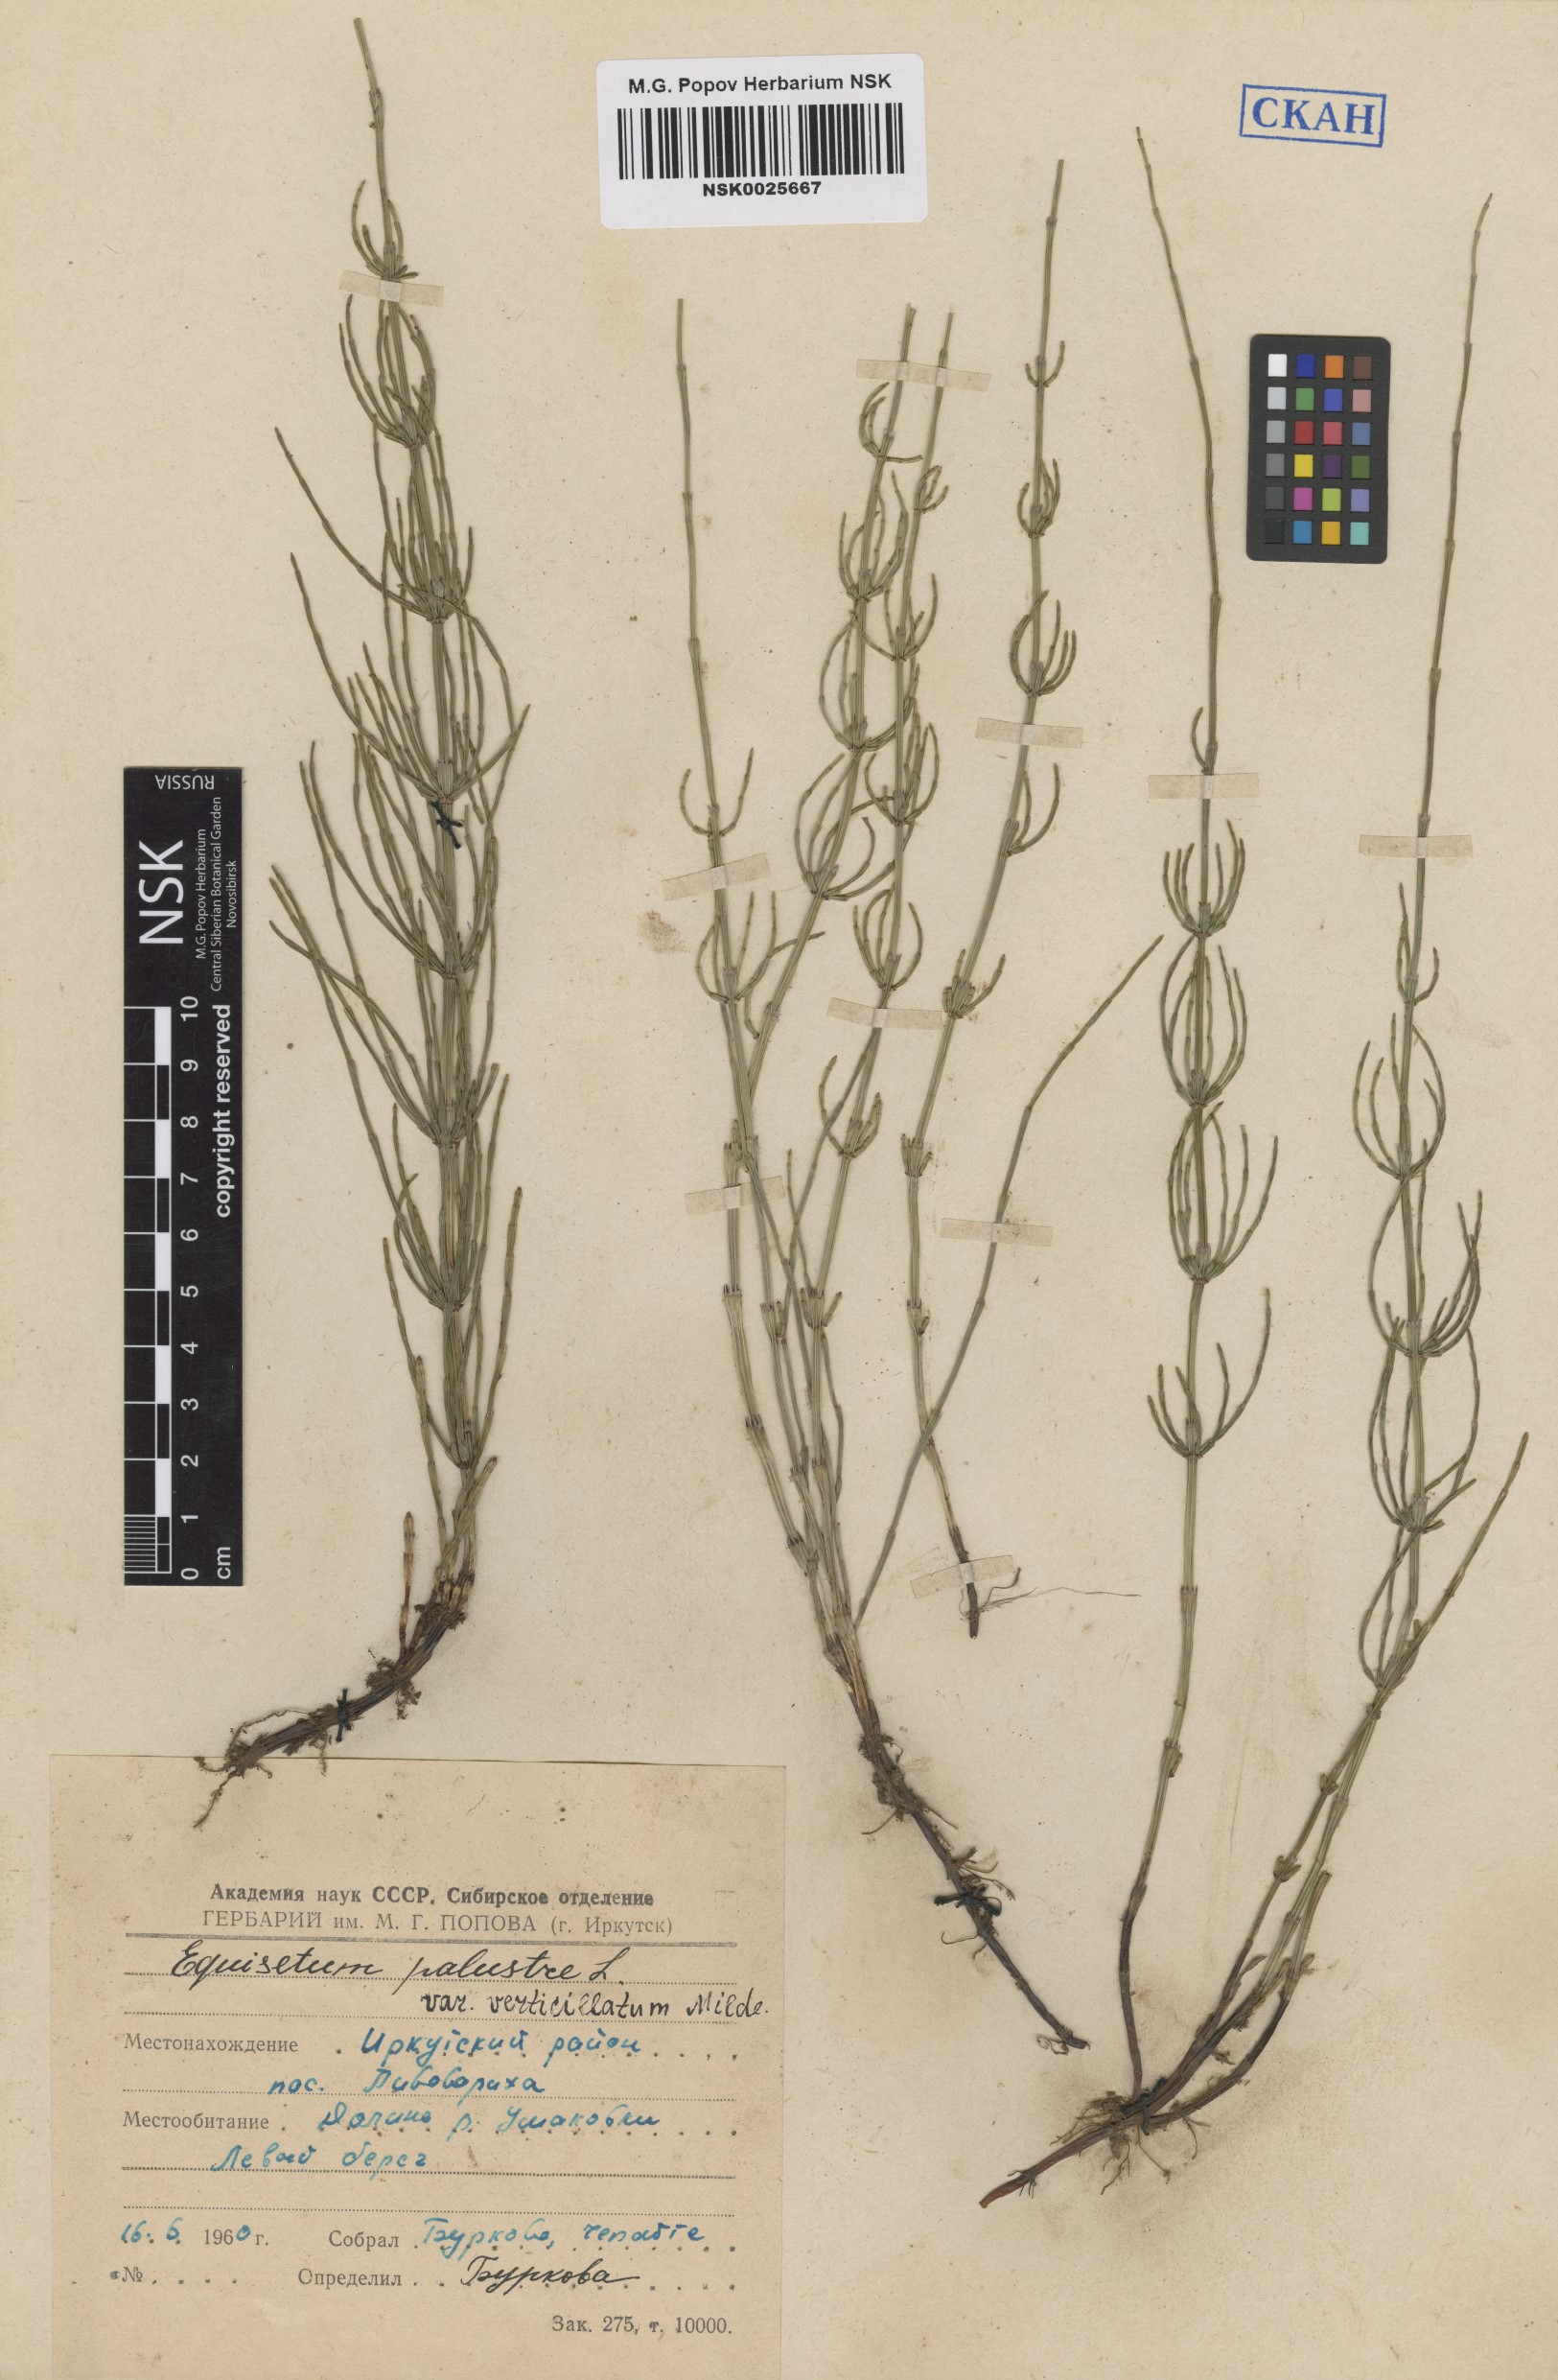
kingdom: Plantae
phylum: Tracheophyta
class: Polypodiopsida
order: Equisetales
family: Equisetaceae
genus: Equisetum
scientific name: Equisetum palustre
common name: Marsh horsetail
